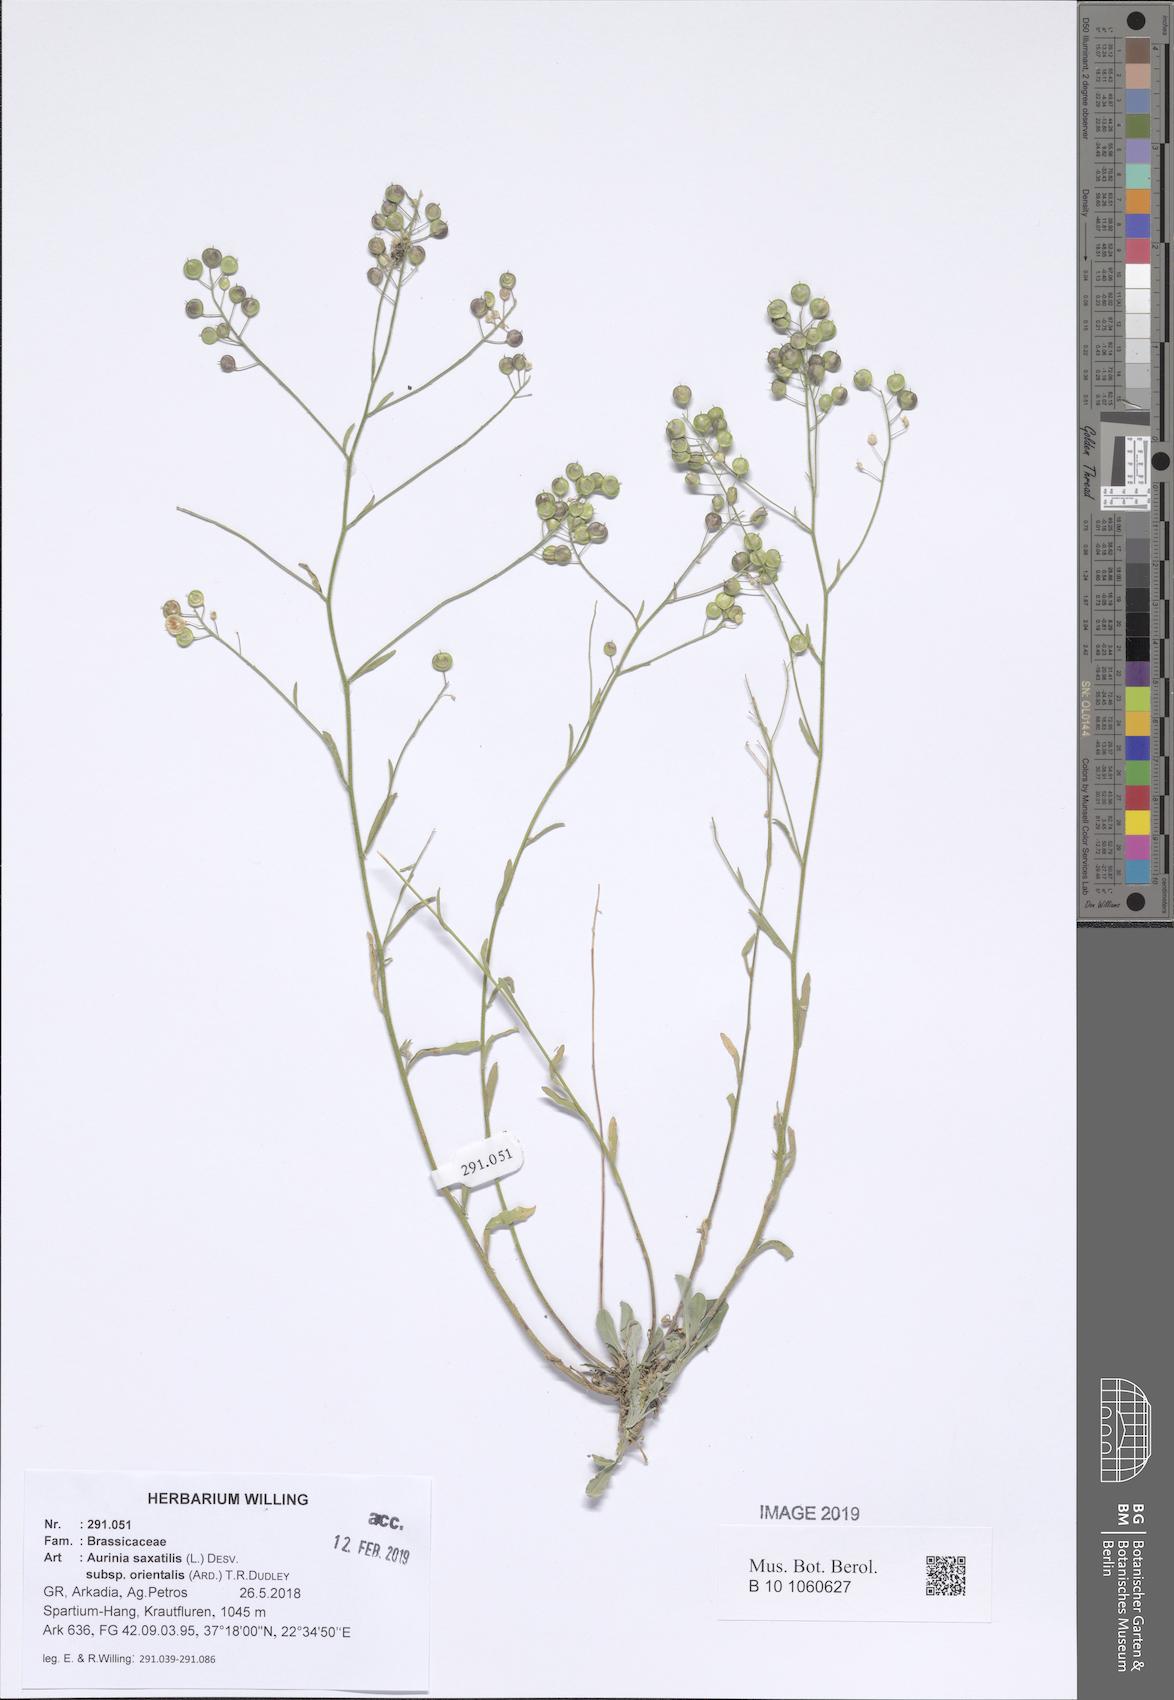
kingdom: Plantae
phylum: Tracheophyta
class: Magnoliopsida
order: Brassicales
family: Brassicaceae
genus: Aurinia
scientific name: Aurinia saxatilis
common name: Golden-tuft alyssum
